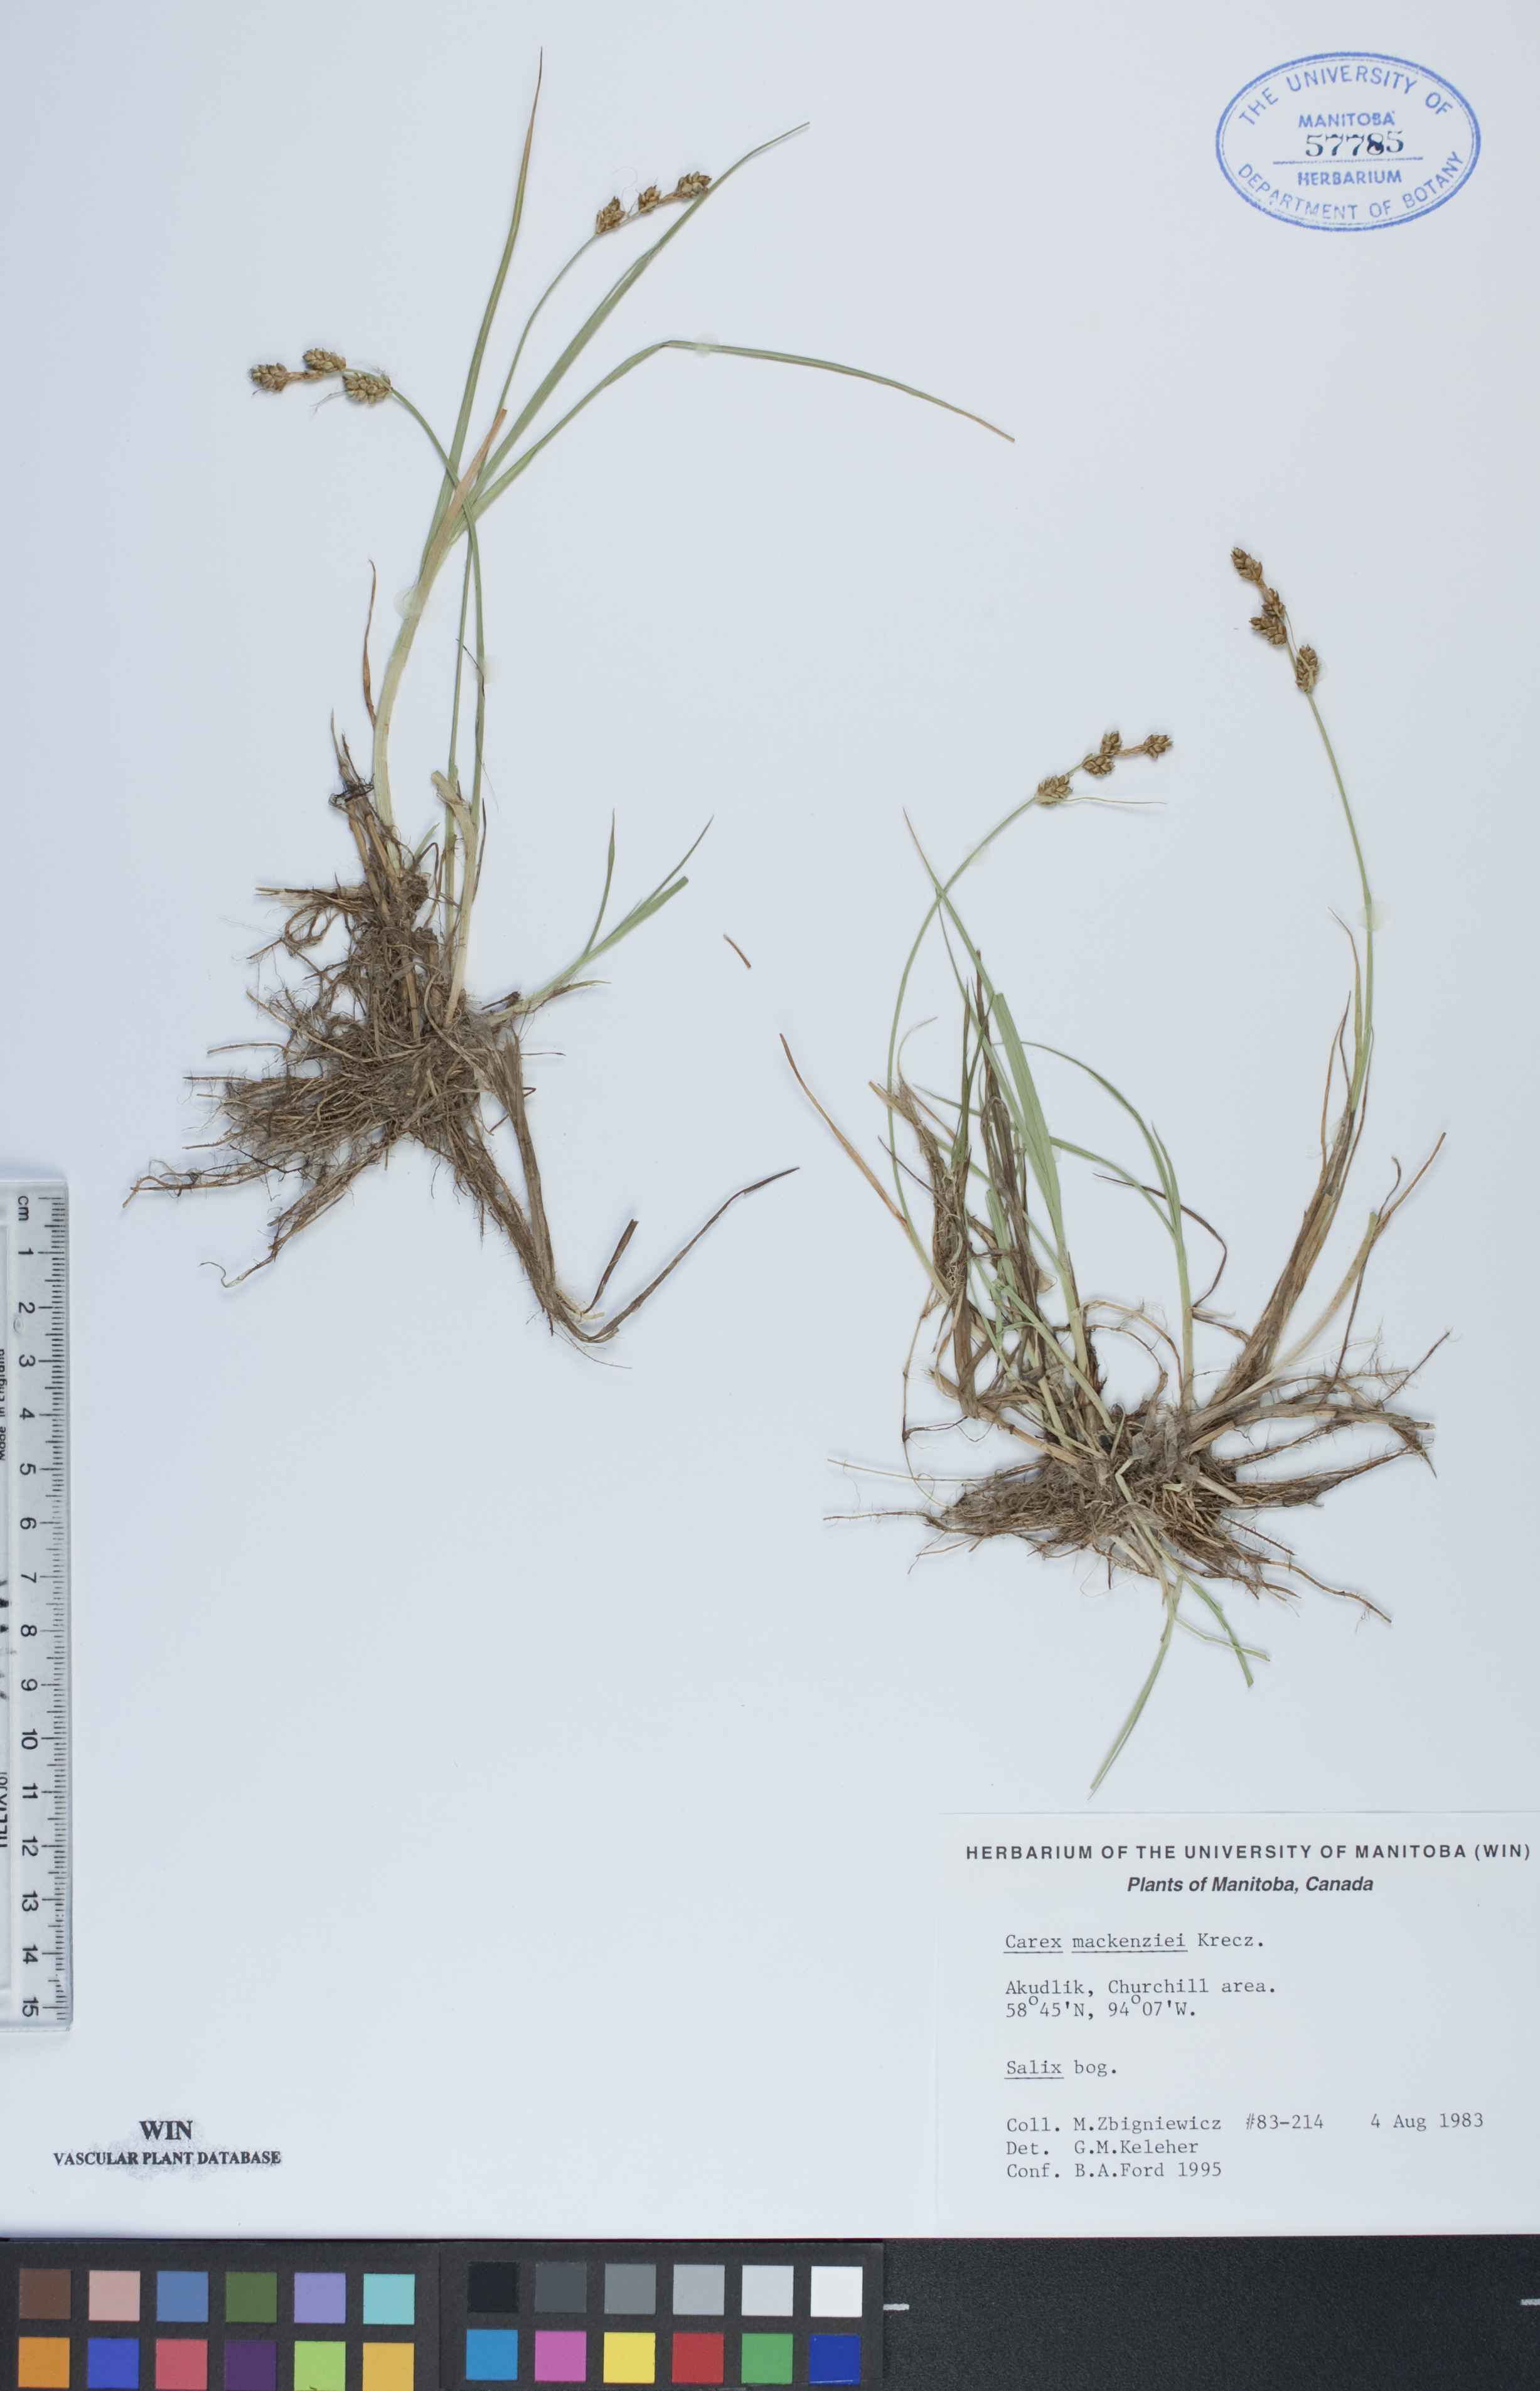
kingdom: Plantae
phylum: Tracheophyta
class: Liliopsida
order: Poales
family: Cyperaceae
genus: Carex
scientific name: Carex mackenziei
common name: Mackenzie's sedge
